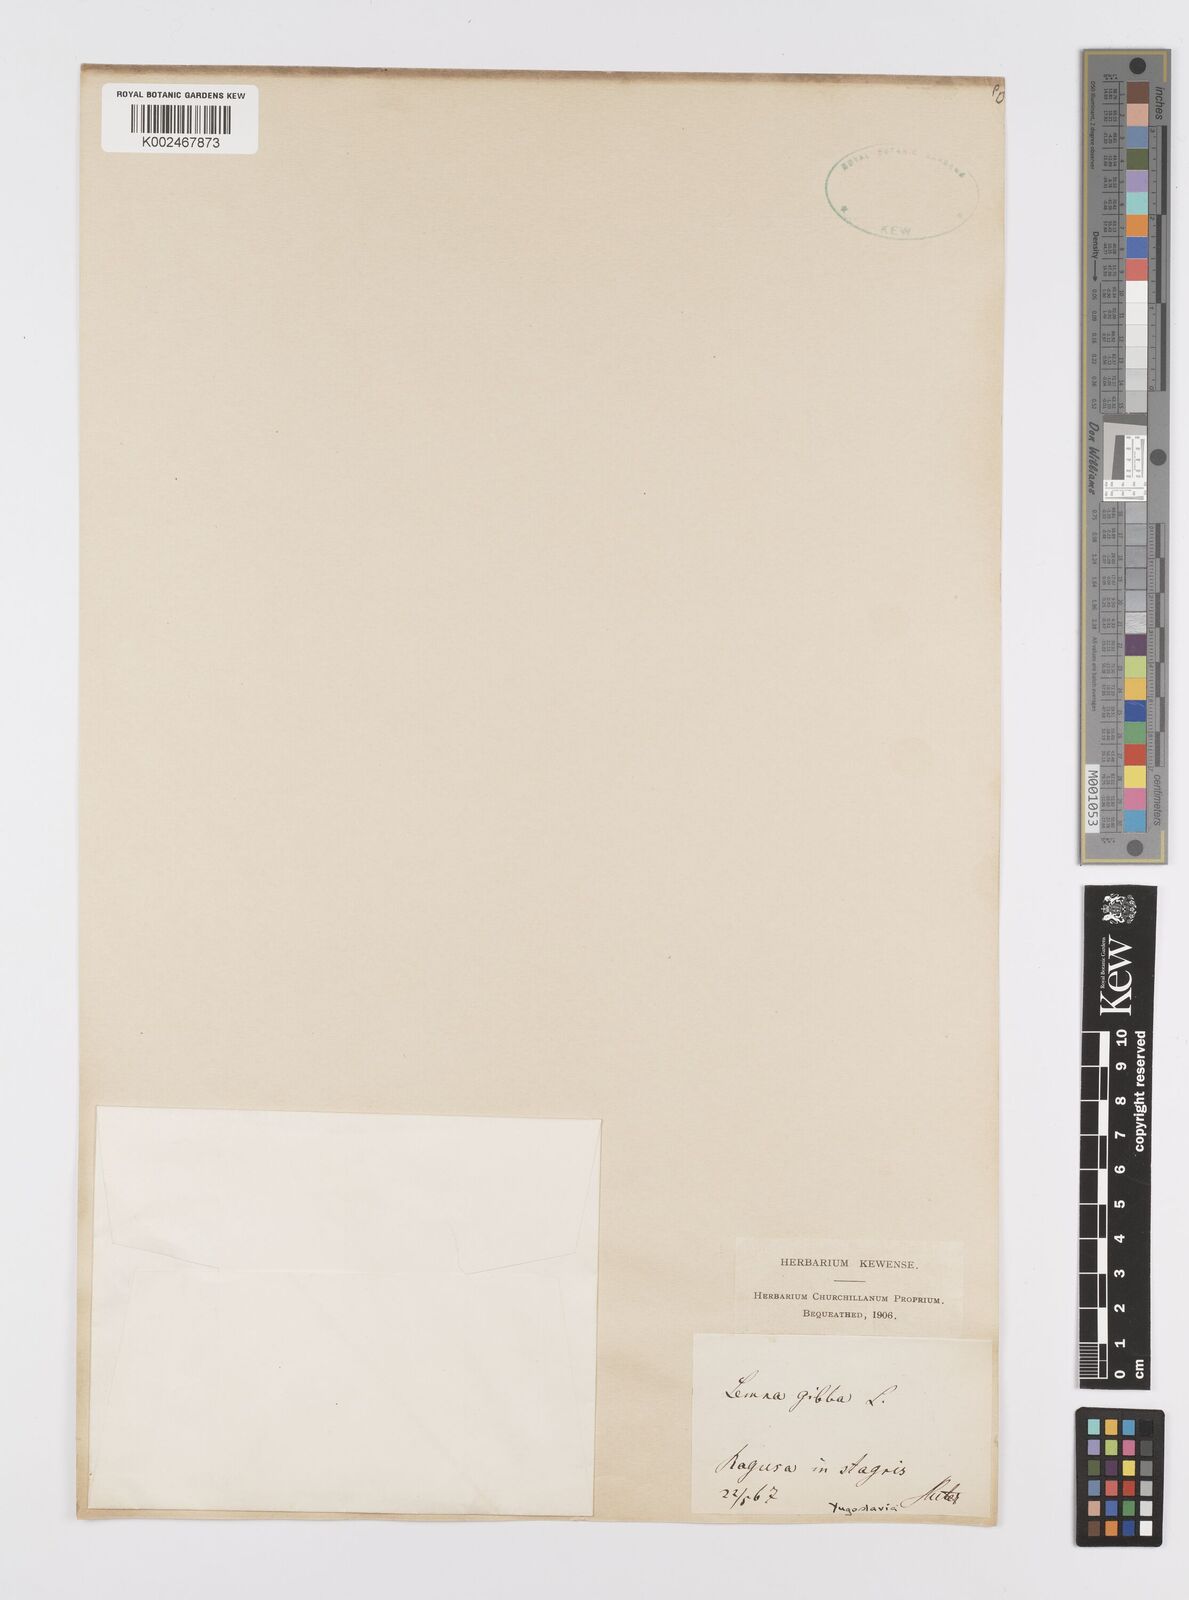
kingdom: Plantae
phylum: Tracheophyta
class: Liliopsida
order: Alismatales
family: Araceae
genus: Lemna
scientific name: Lemna gibba
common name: Fat duckweed
